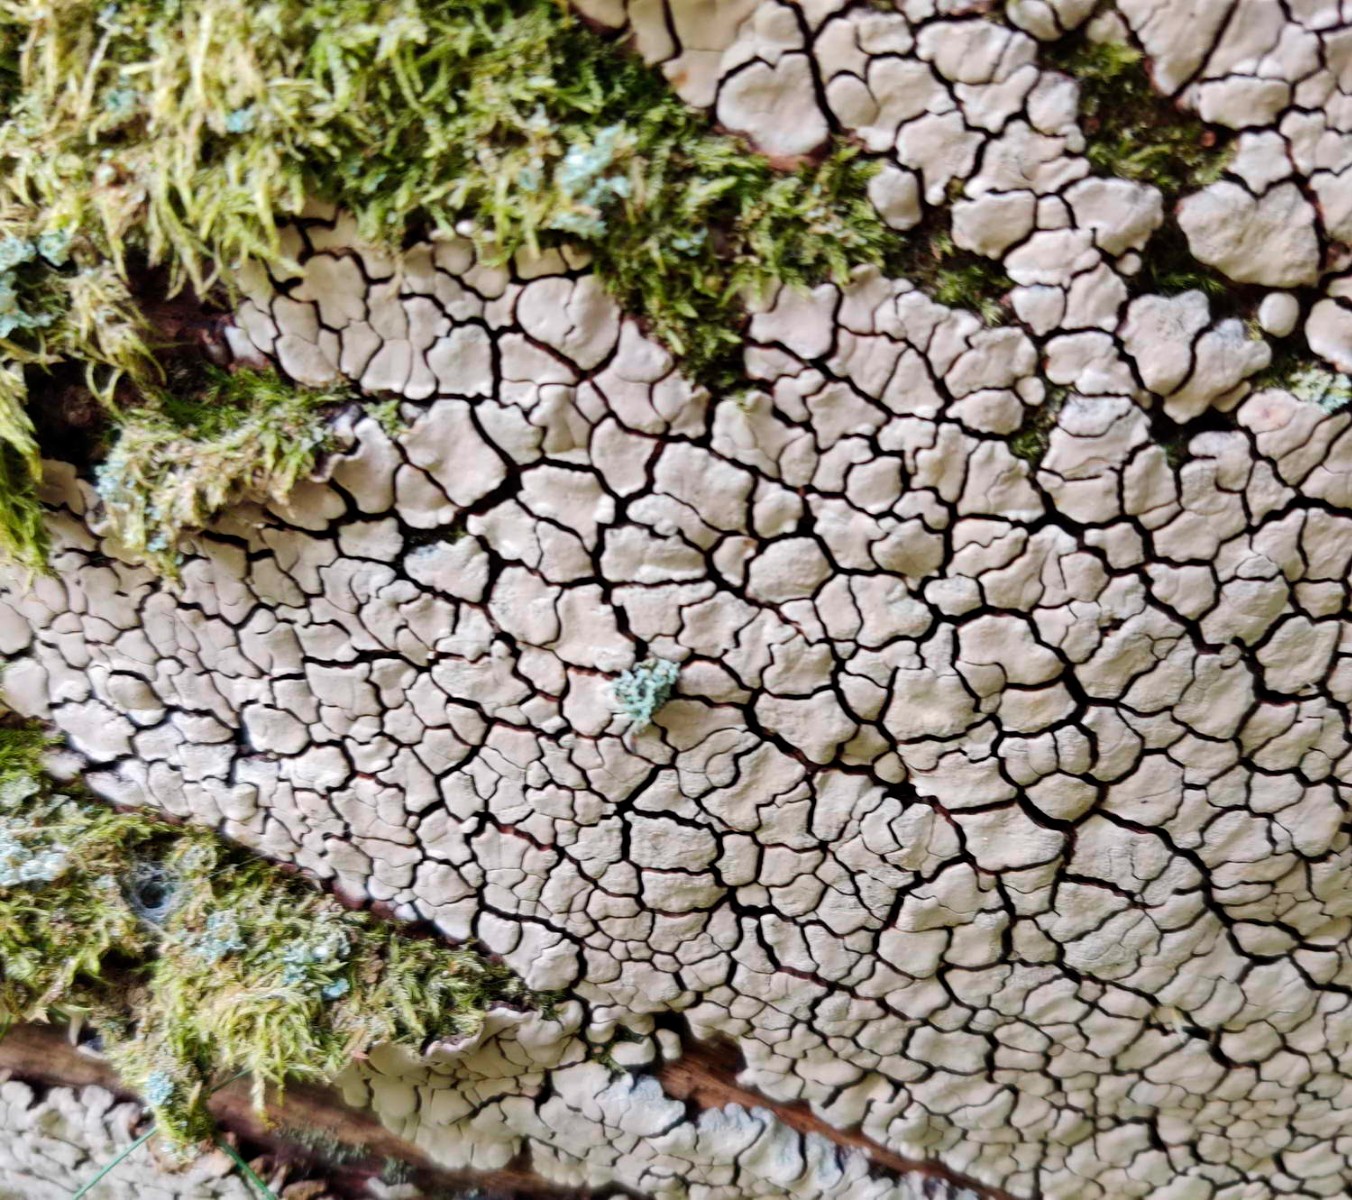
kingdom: Fungi
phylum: Basidiomycota
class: Agaricomycetes
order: Russulales
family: Stereaceae
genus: Xylobolus
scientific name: Xylobolus frustulatus
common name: mønster-lædersvamp
